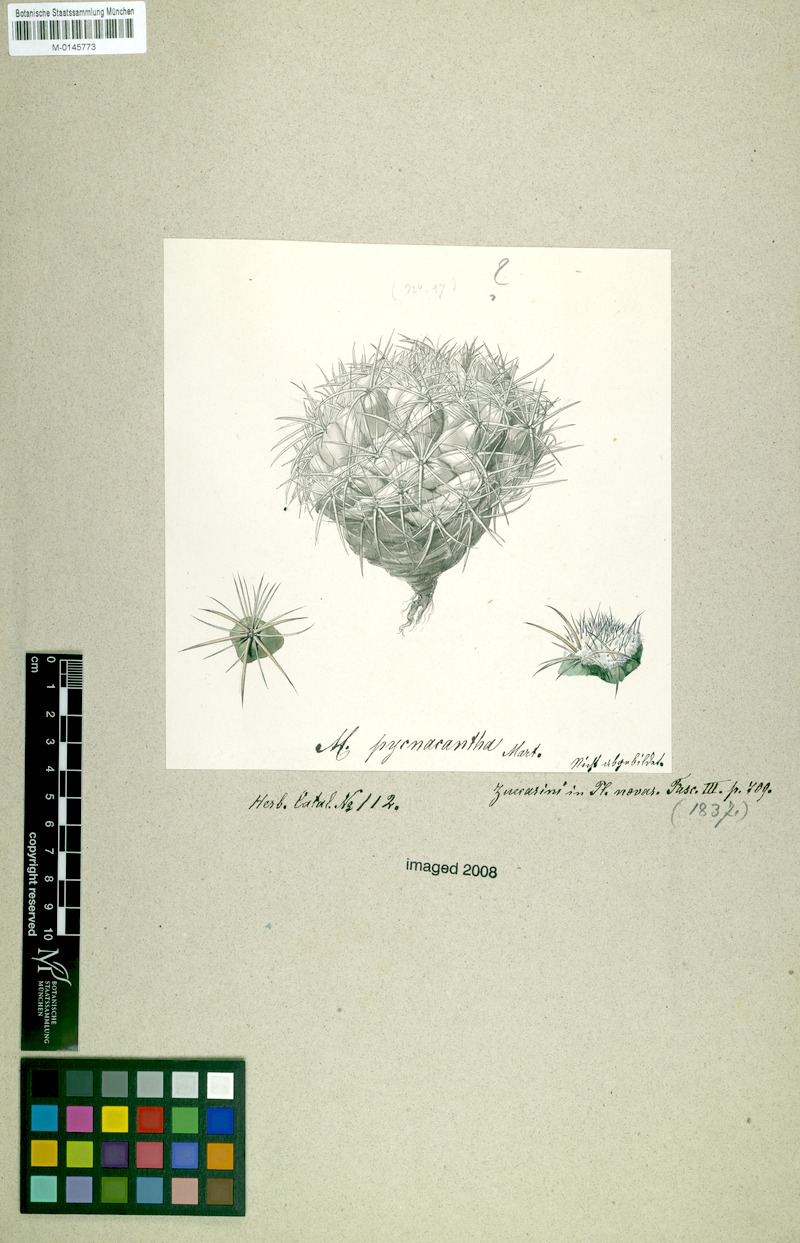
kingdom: Plantae
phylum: Tracheophyta
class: Magnoliopsida
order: Caryophyllales
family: Cactaceae
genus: Coryphantha
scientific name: Coryphantha pycnacantha
